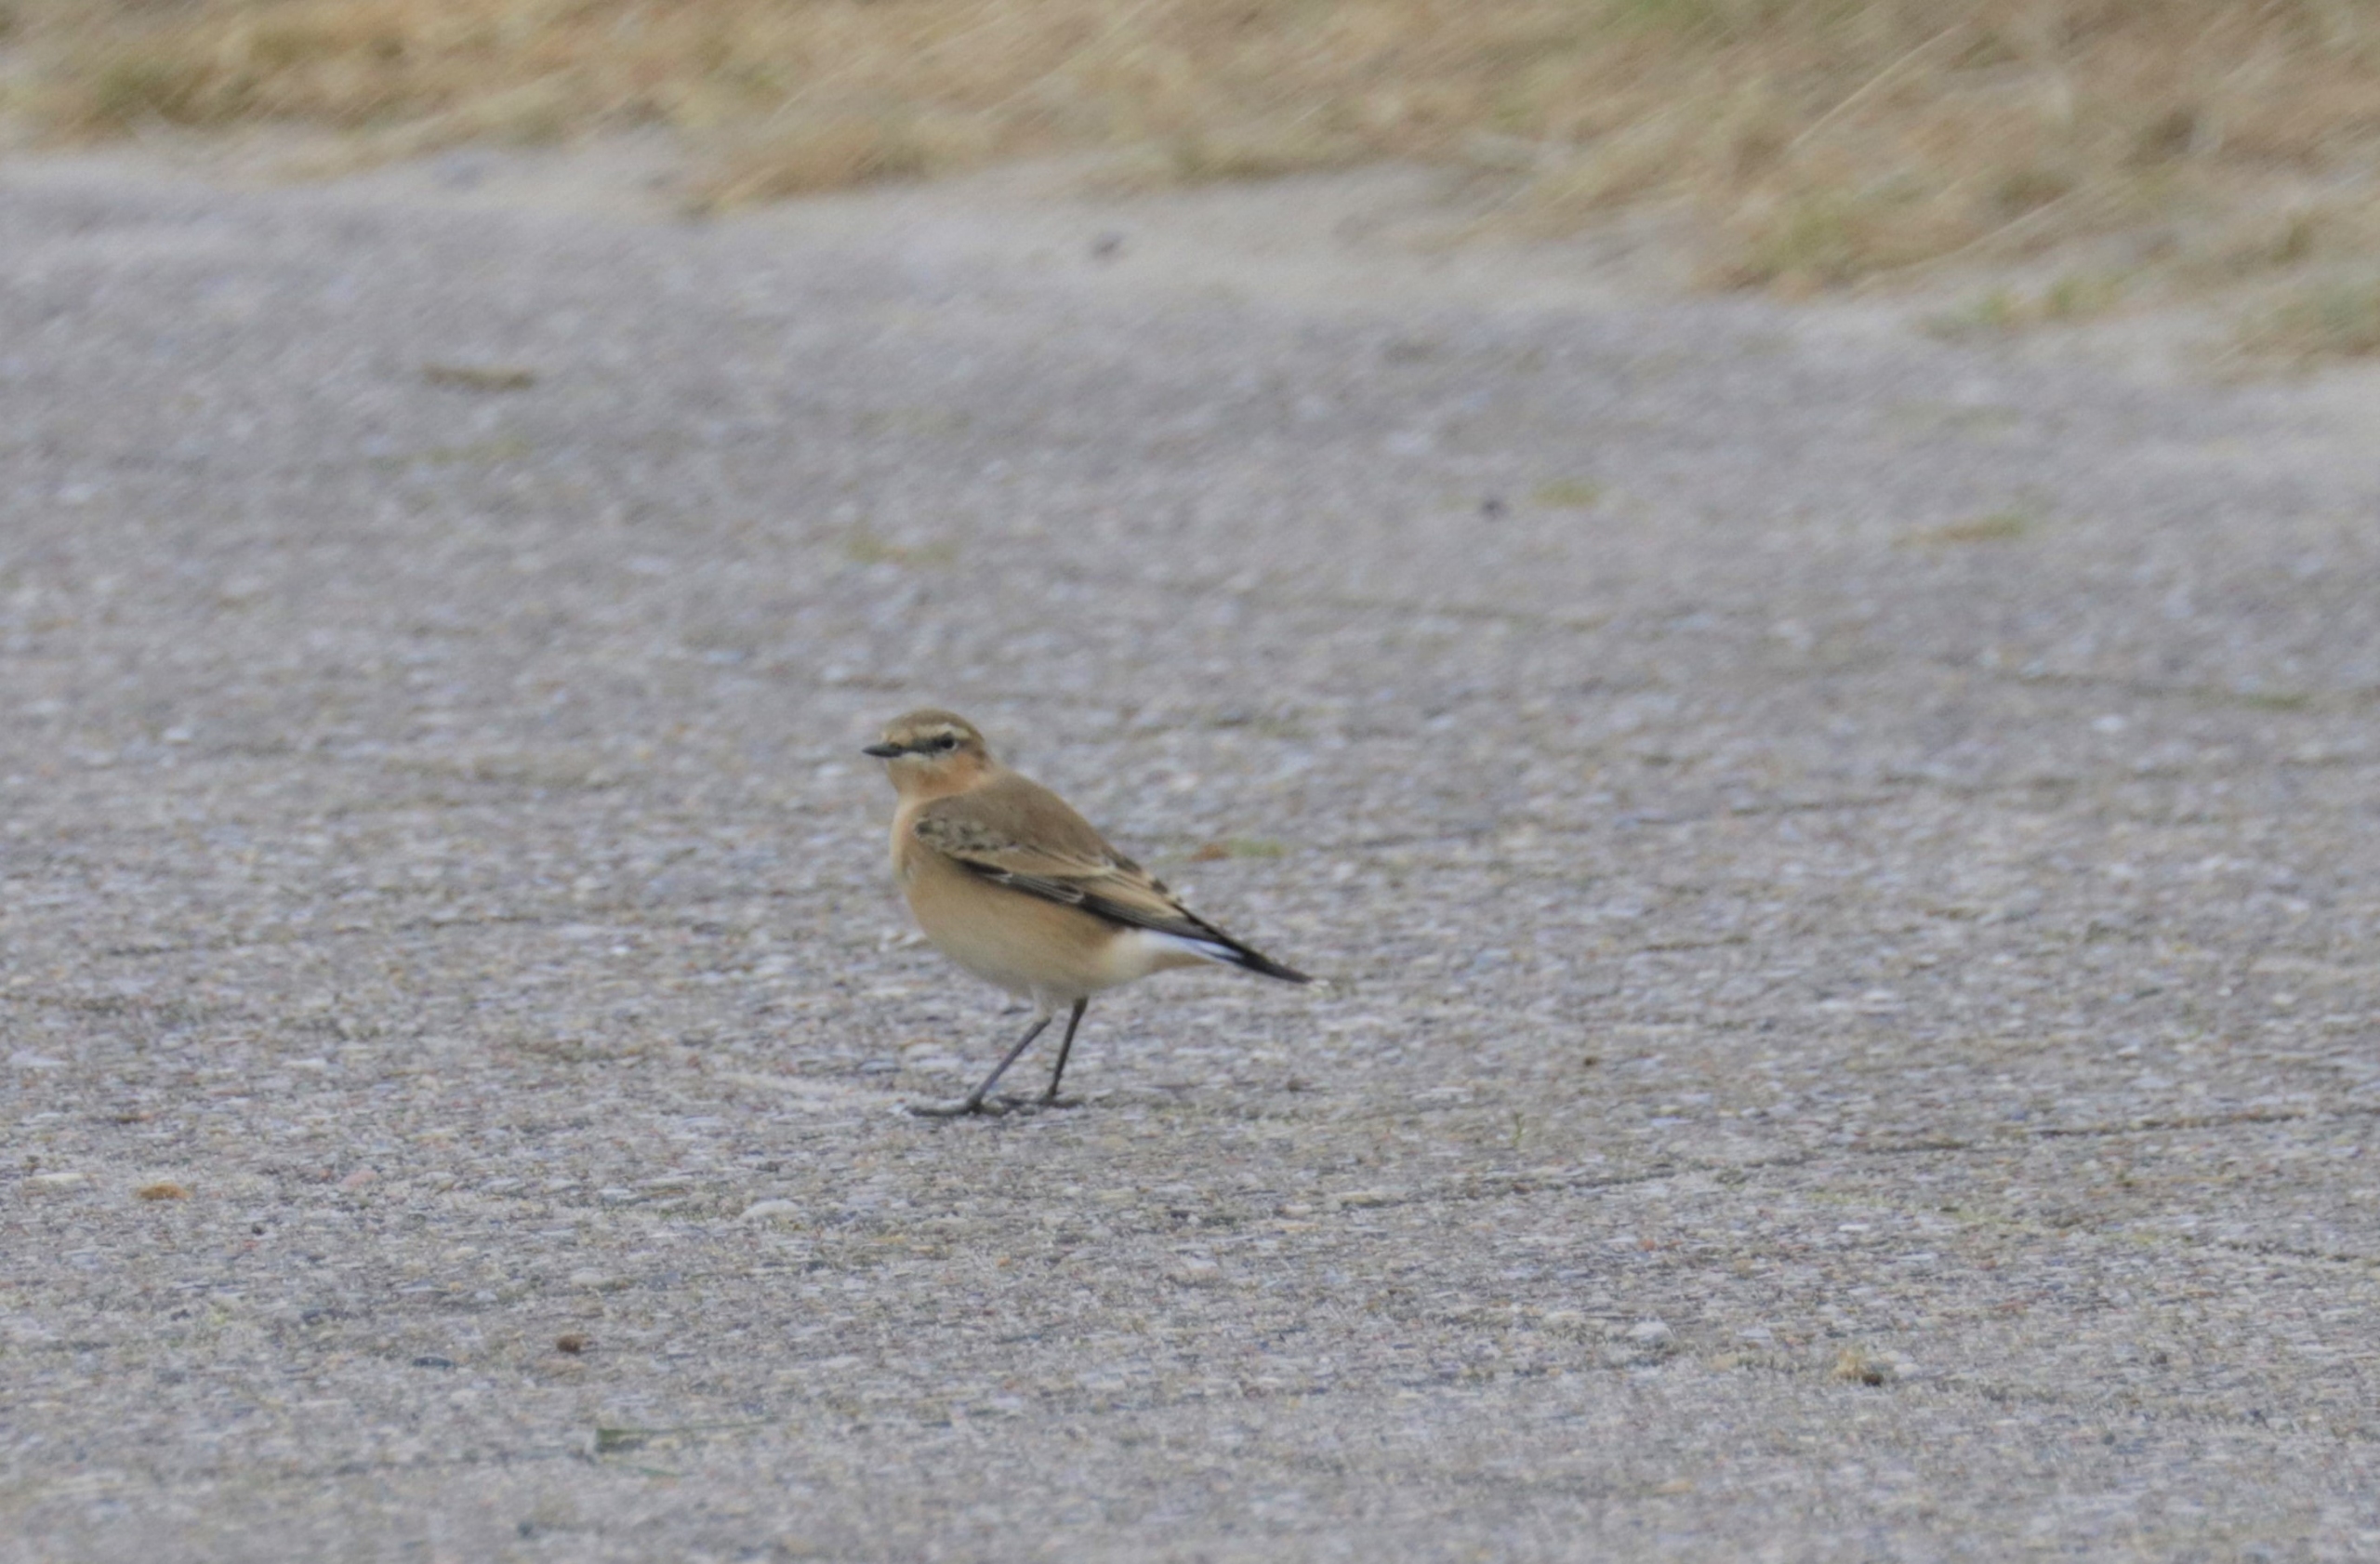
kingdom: Animalia
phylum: Chordata
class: Aves
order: Passeriformes
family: Muscicapidae
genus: Oenanthe
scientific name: Oenanthe oenanthe
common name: Stenpikker
